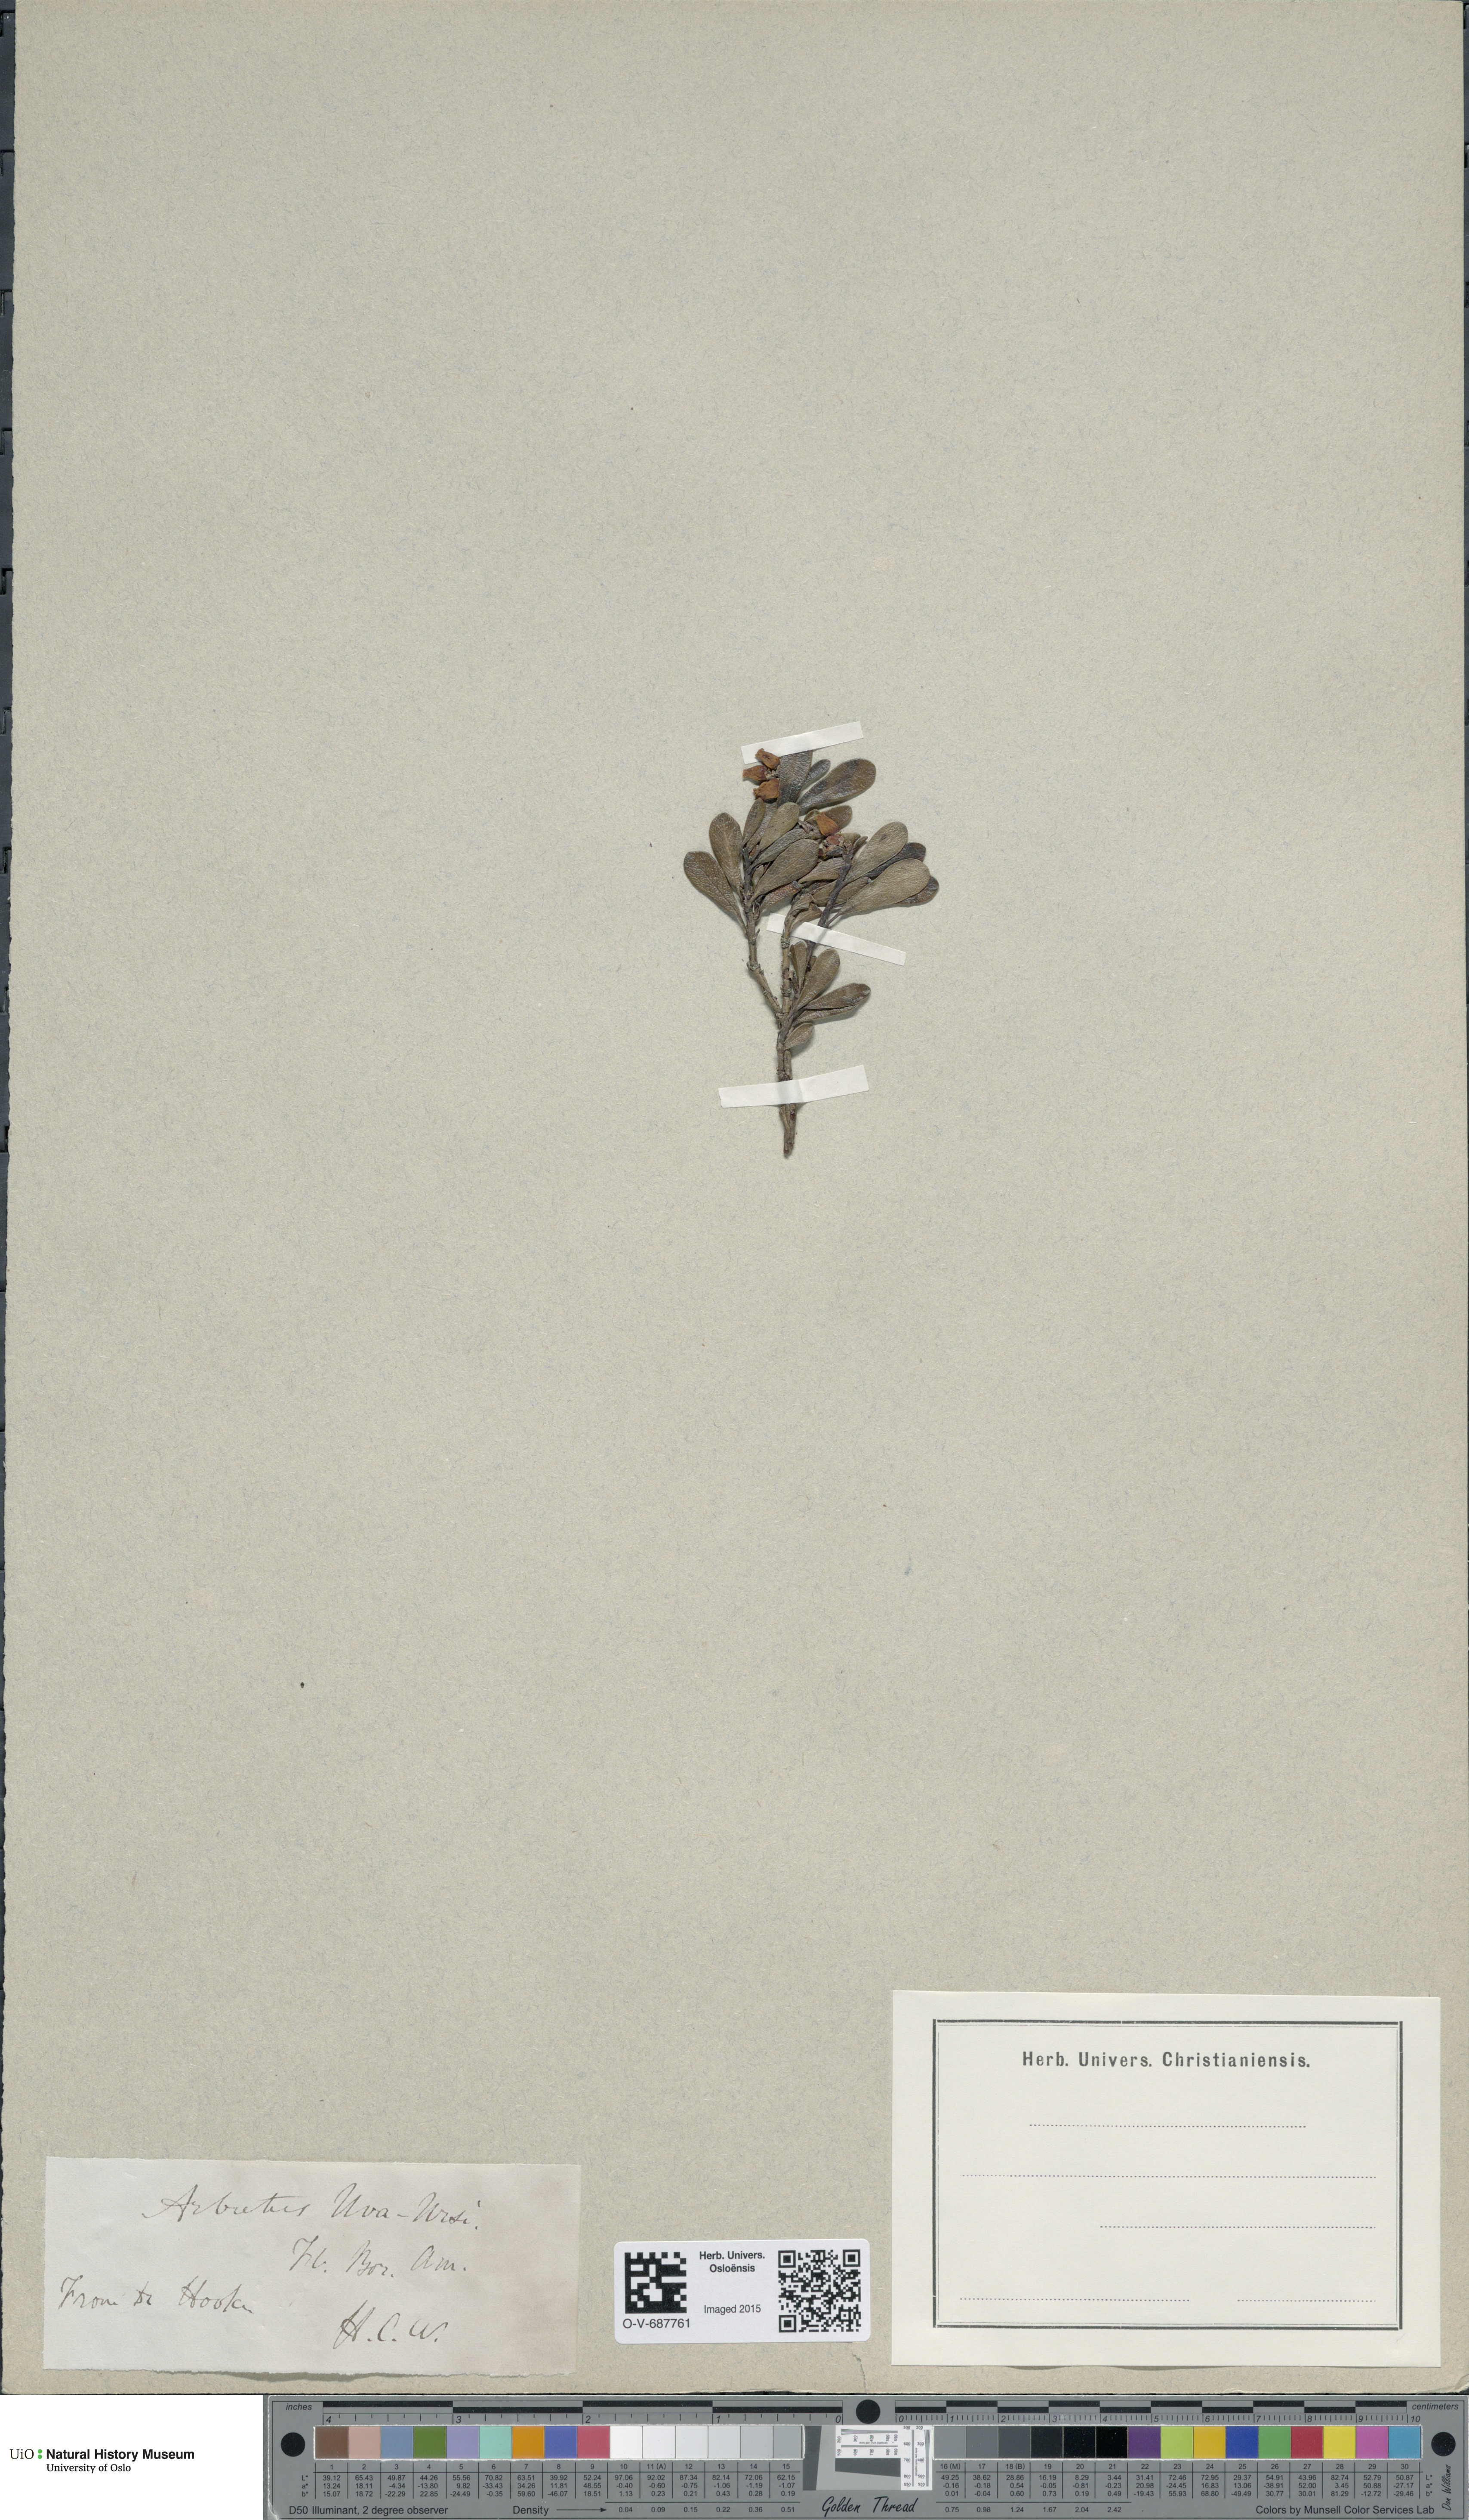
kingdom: Plantae
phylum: Tracheophyta
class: Magnoliopsida
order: Ericales
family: Ericaceae
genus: Arctostaphylos
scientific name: Arctostaphylos uva-ursi
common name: Bearberry
